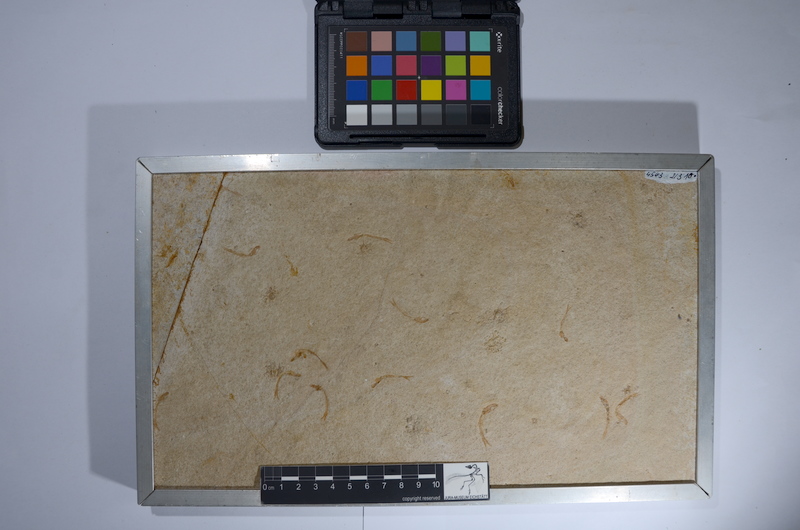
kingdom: Animalia
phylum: Chordata
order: Salmoniformes
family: Orthogonikleithridae
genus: Leptolepides
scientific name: Leptolepides sprattiformis
